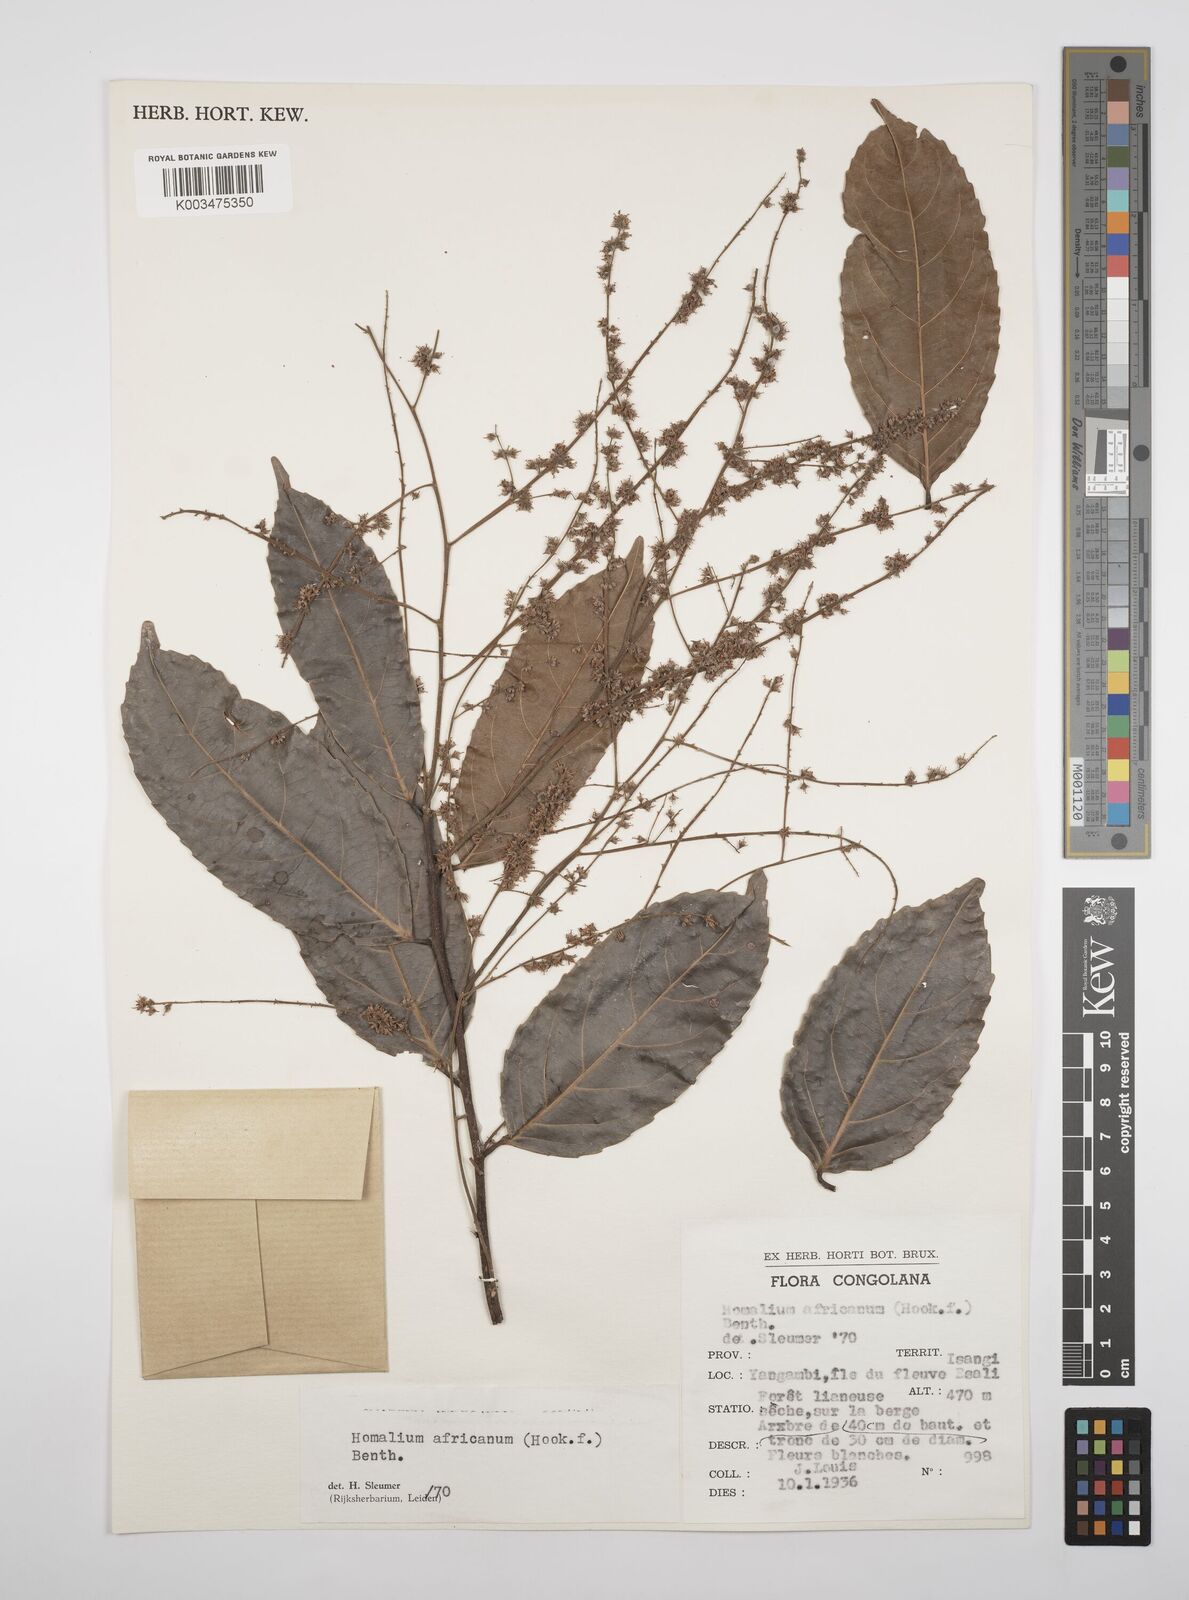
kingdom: Plantae
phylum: Tracheophyta
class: Magnoliopsida
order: Malpighiales
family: Salicaceae
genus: Homalium
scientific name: Homalium africanum
